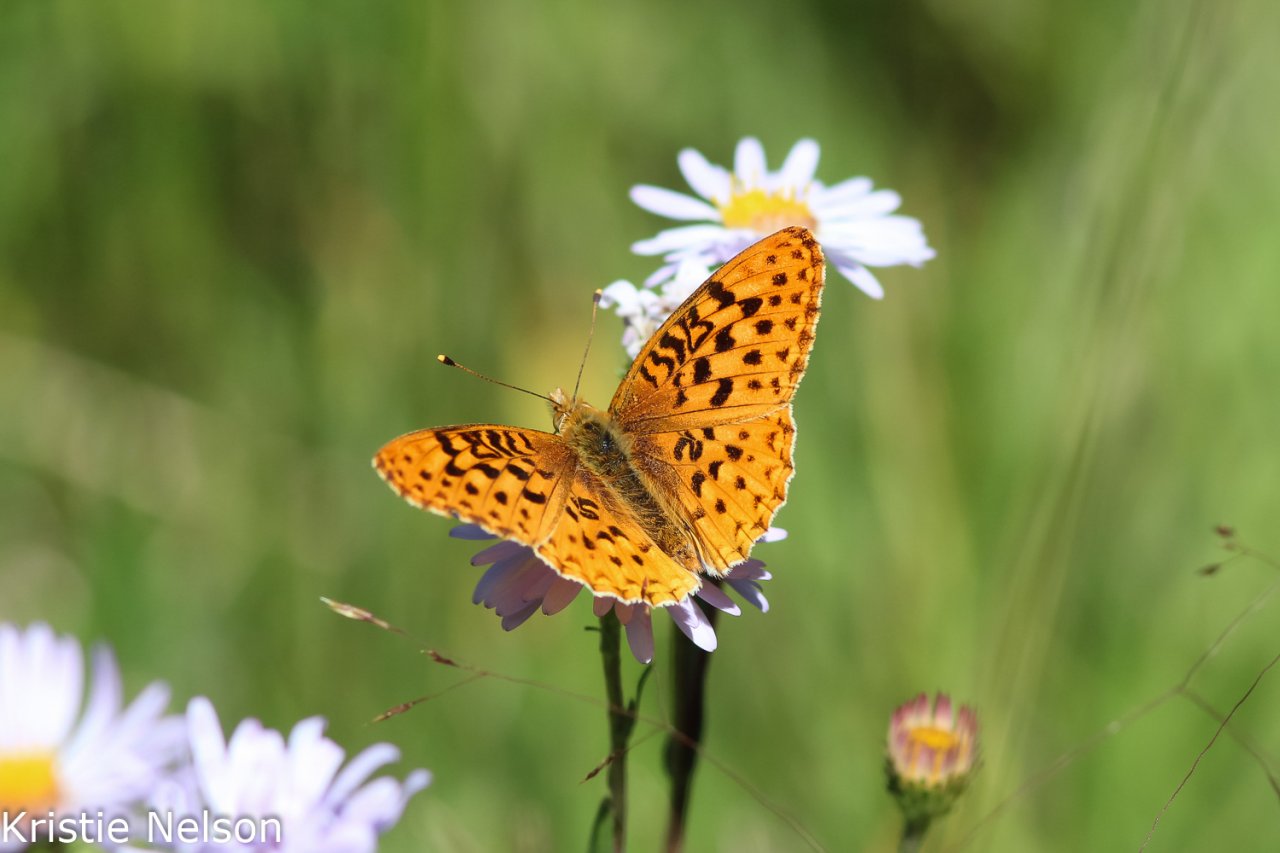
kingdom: Animalia
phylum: Arthropoda
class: Insecta
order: Lepidoptera
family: Nymphalidae
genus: Speyeria
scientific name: Speyeria mormonia
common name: Mormon Fritillary
